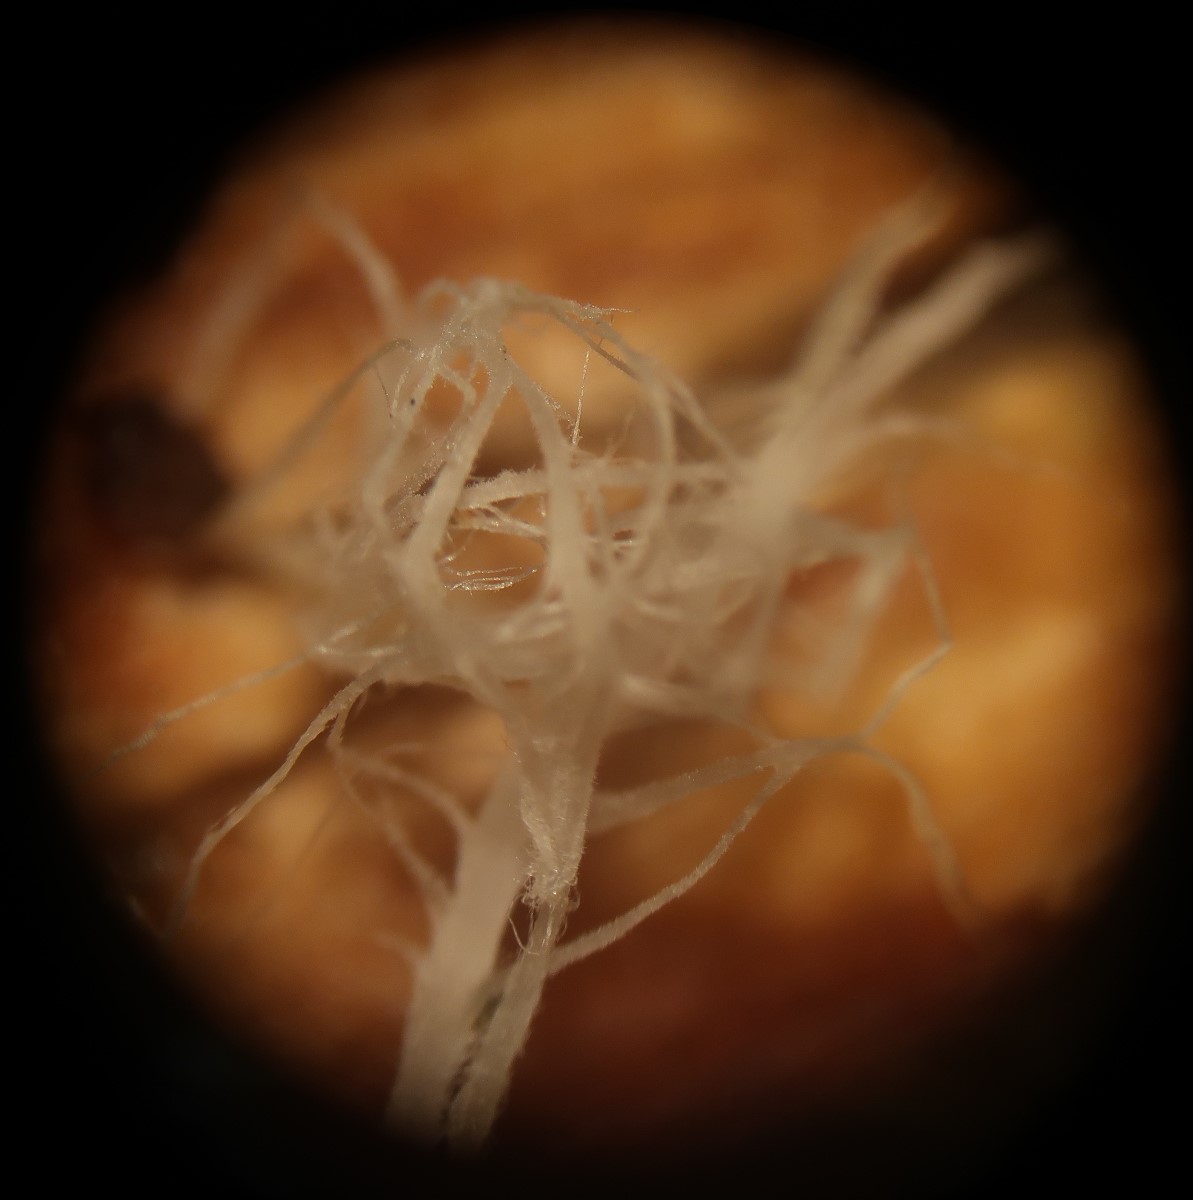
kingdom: Fungi
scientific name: Fungi
